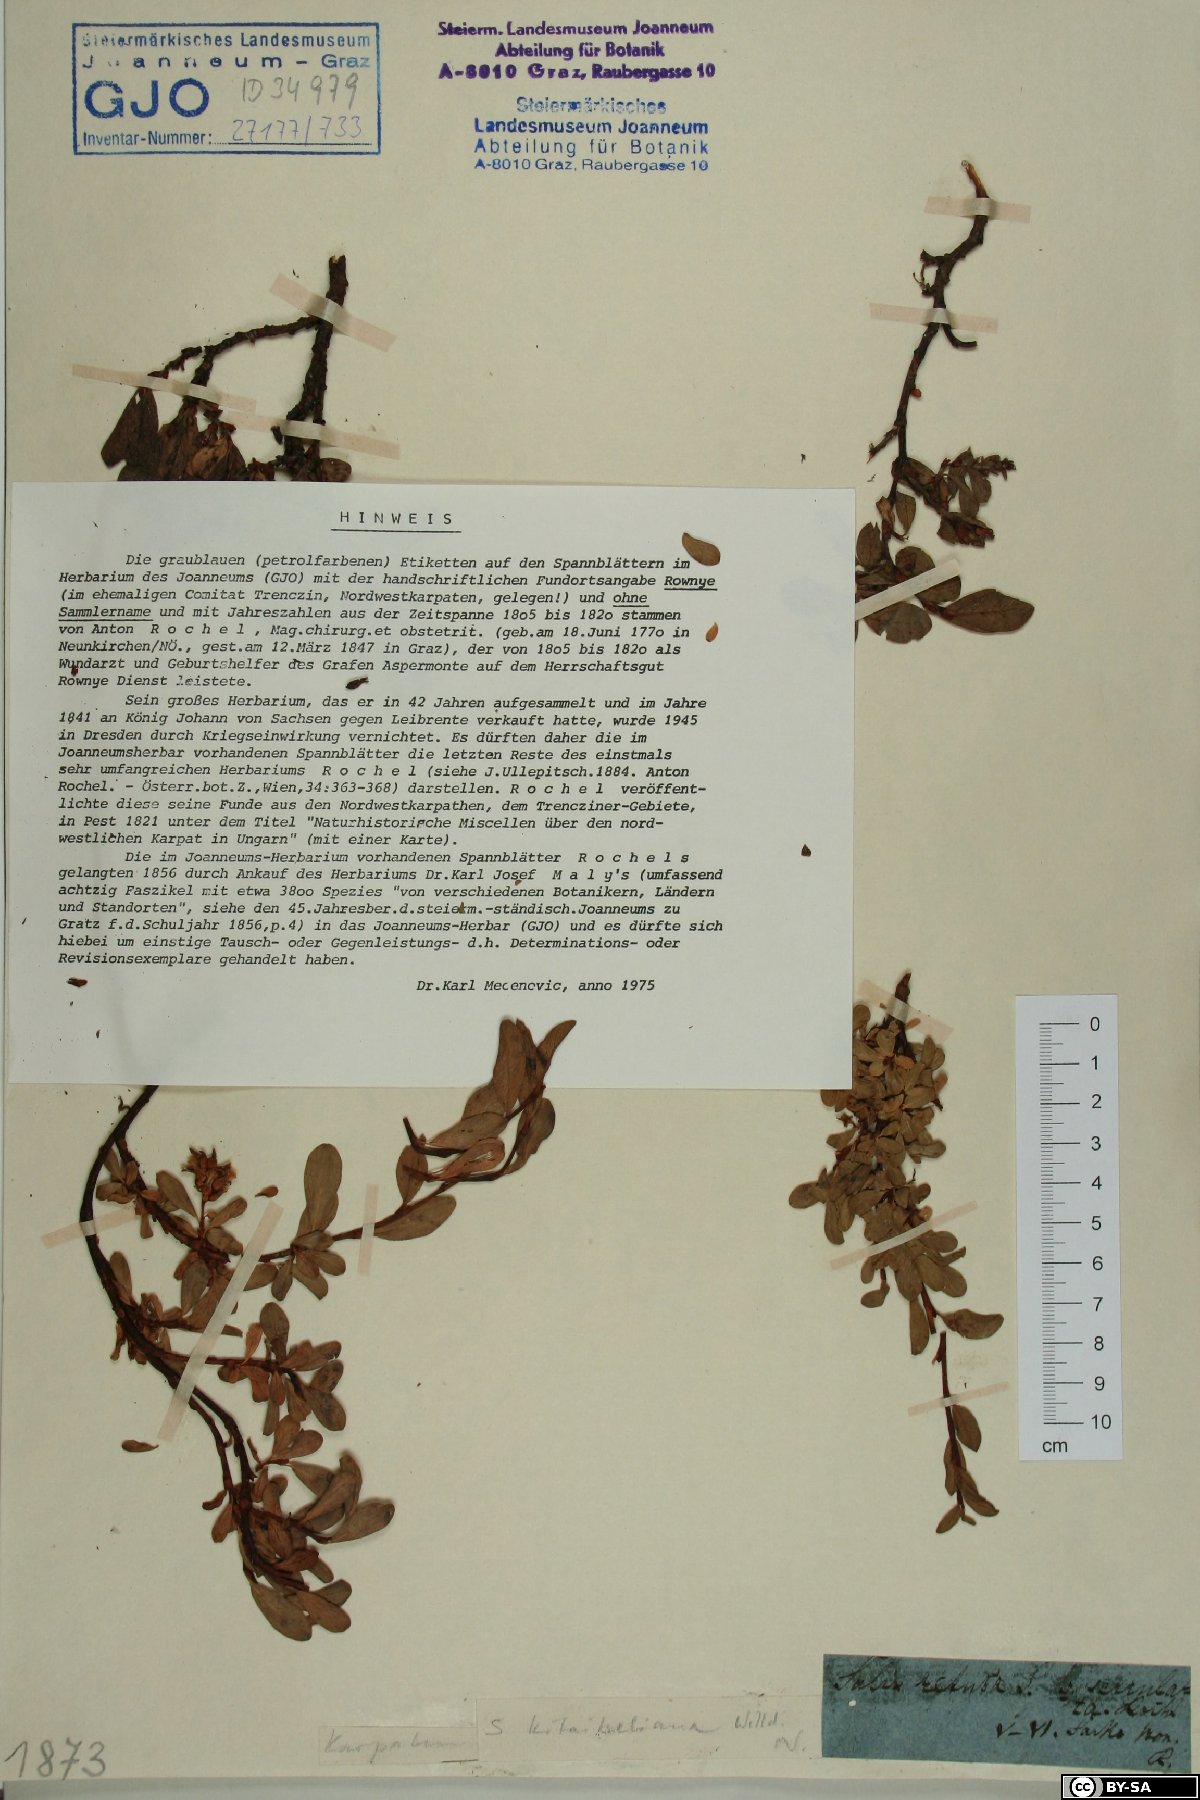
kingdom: Plantae
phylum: Tracheophyta
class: Magnoliopsida
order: Malpighiales
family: Salicaceae
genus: Salix
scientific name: Salix retusa
